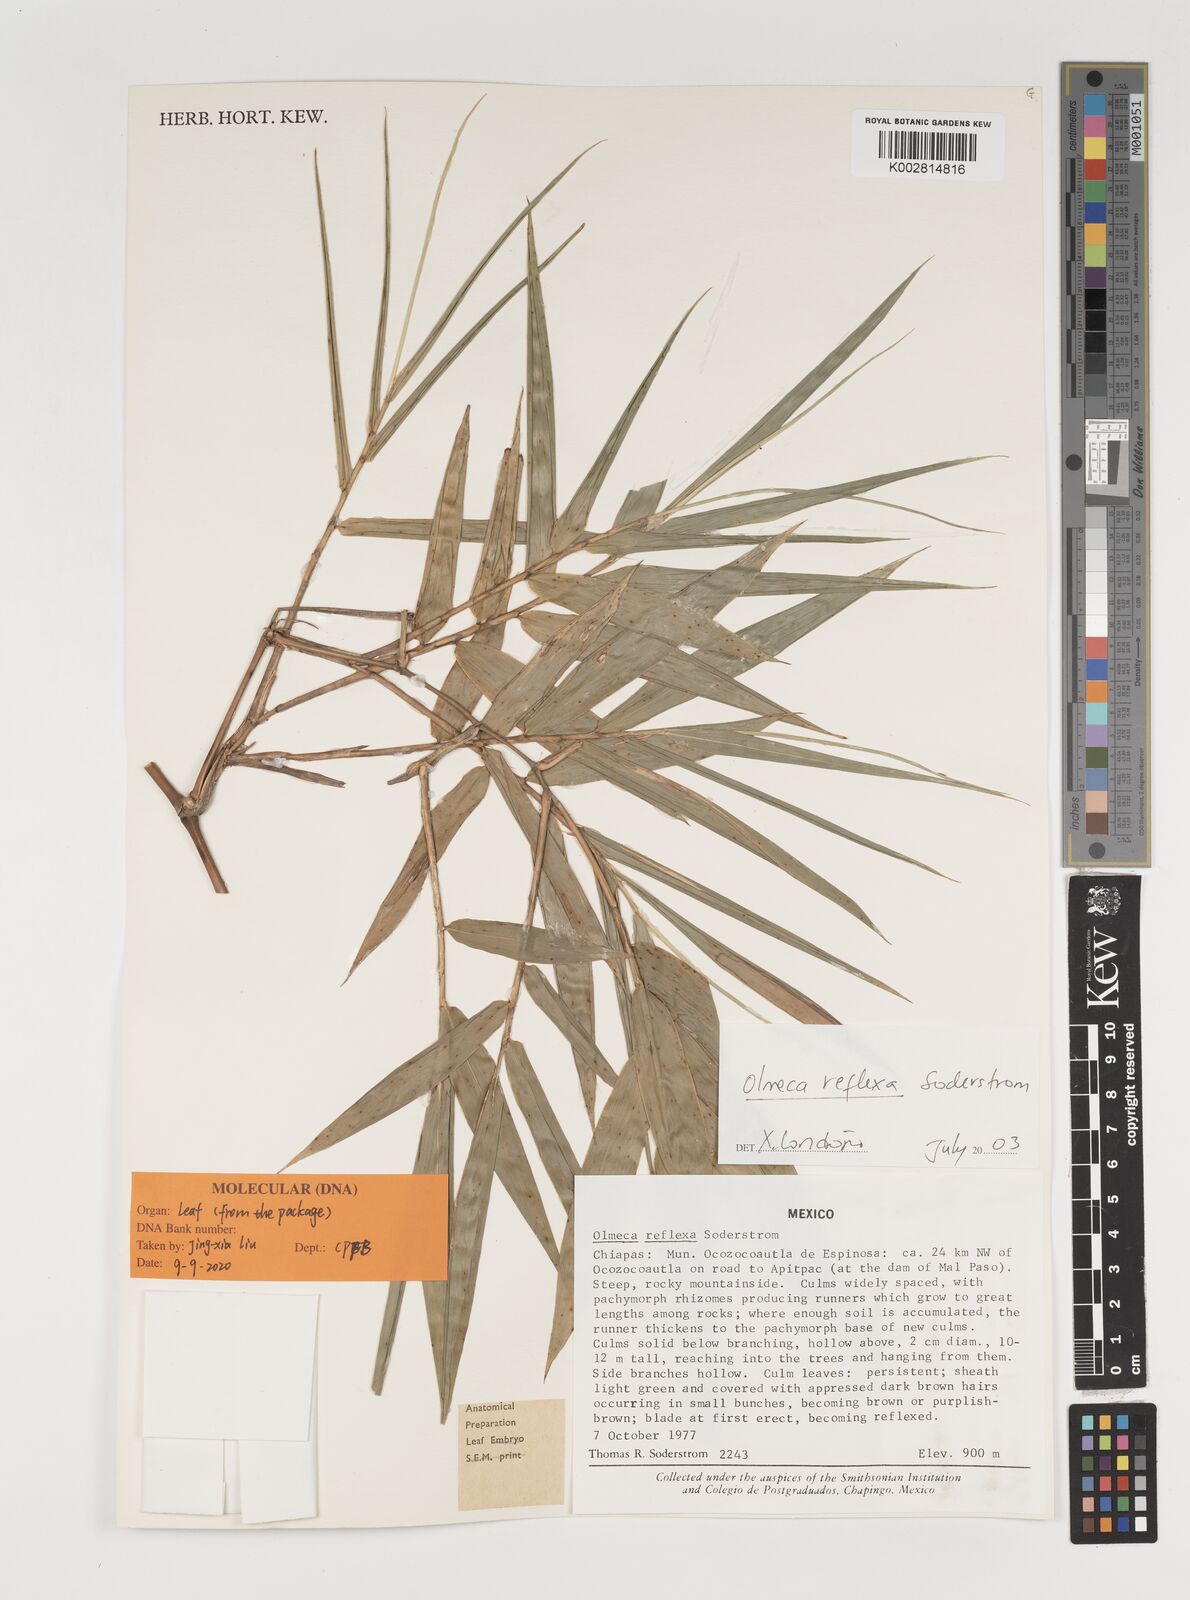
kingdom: Plantae
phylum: Tracheophyta
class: Liliopsida
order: Poales
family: Poaceae
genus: Olmeca
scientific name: Olmeca reflexa
